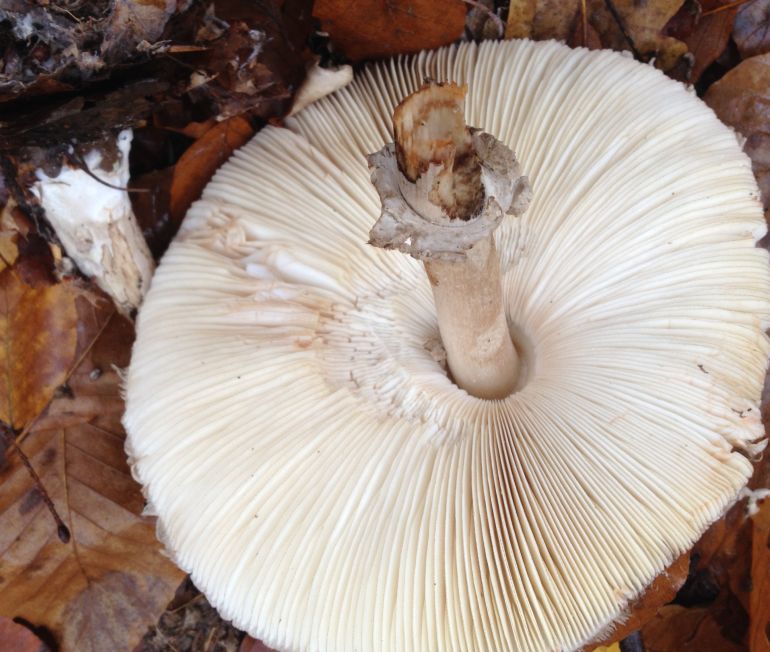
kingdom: Fungi
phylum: Basidiomycota
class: Agaricomycetes
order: Agaricales
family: Agaricaceae
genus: Chlorophyllum
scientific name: Chlorophyllum olivieri
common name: almindelig rabarberhat
